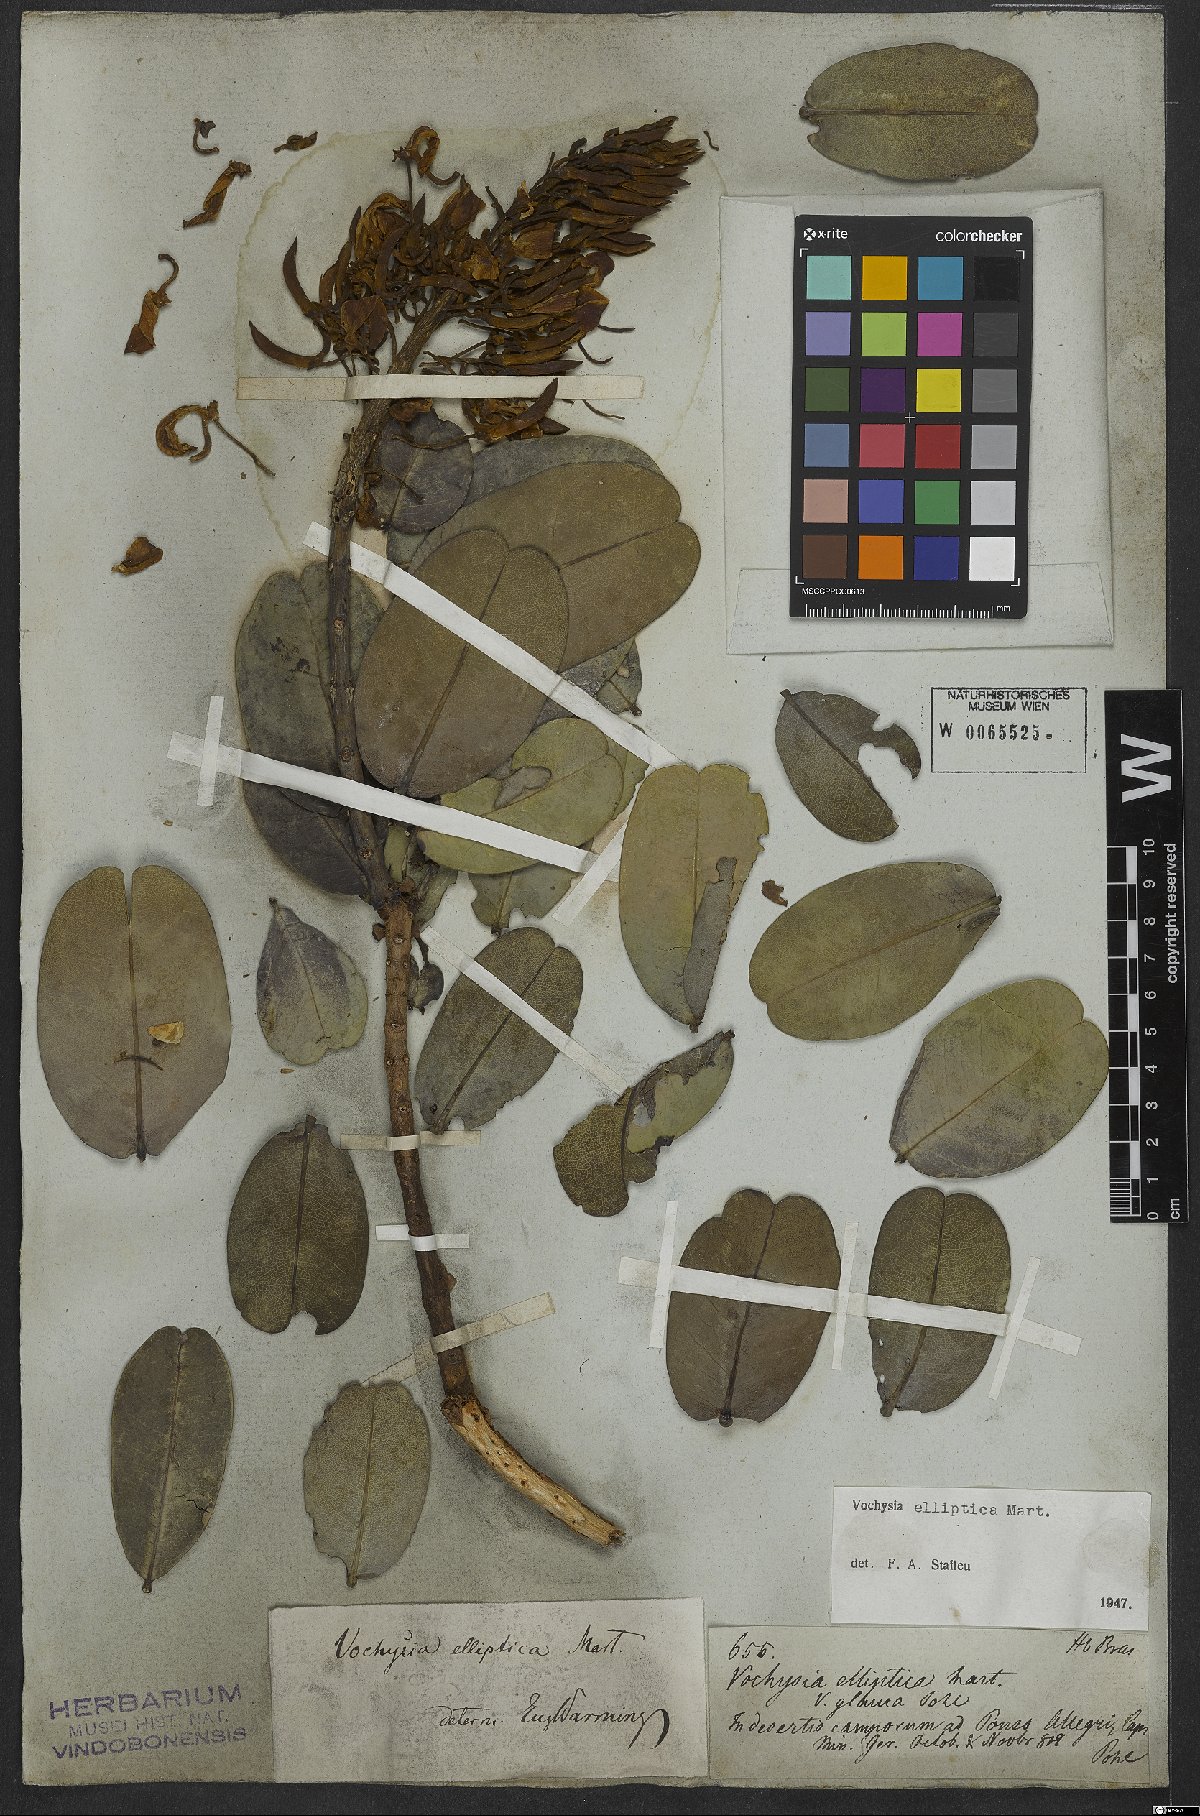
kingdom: Plantae
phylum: Tracheophyta
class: Magnoliopsida
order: Myrtales
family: Vochysiaceae
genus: Vochysia
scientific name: Vochysia elliptica
